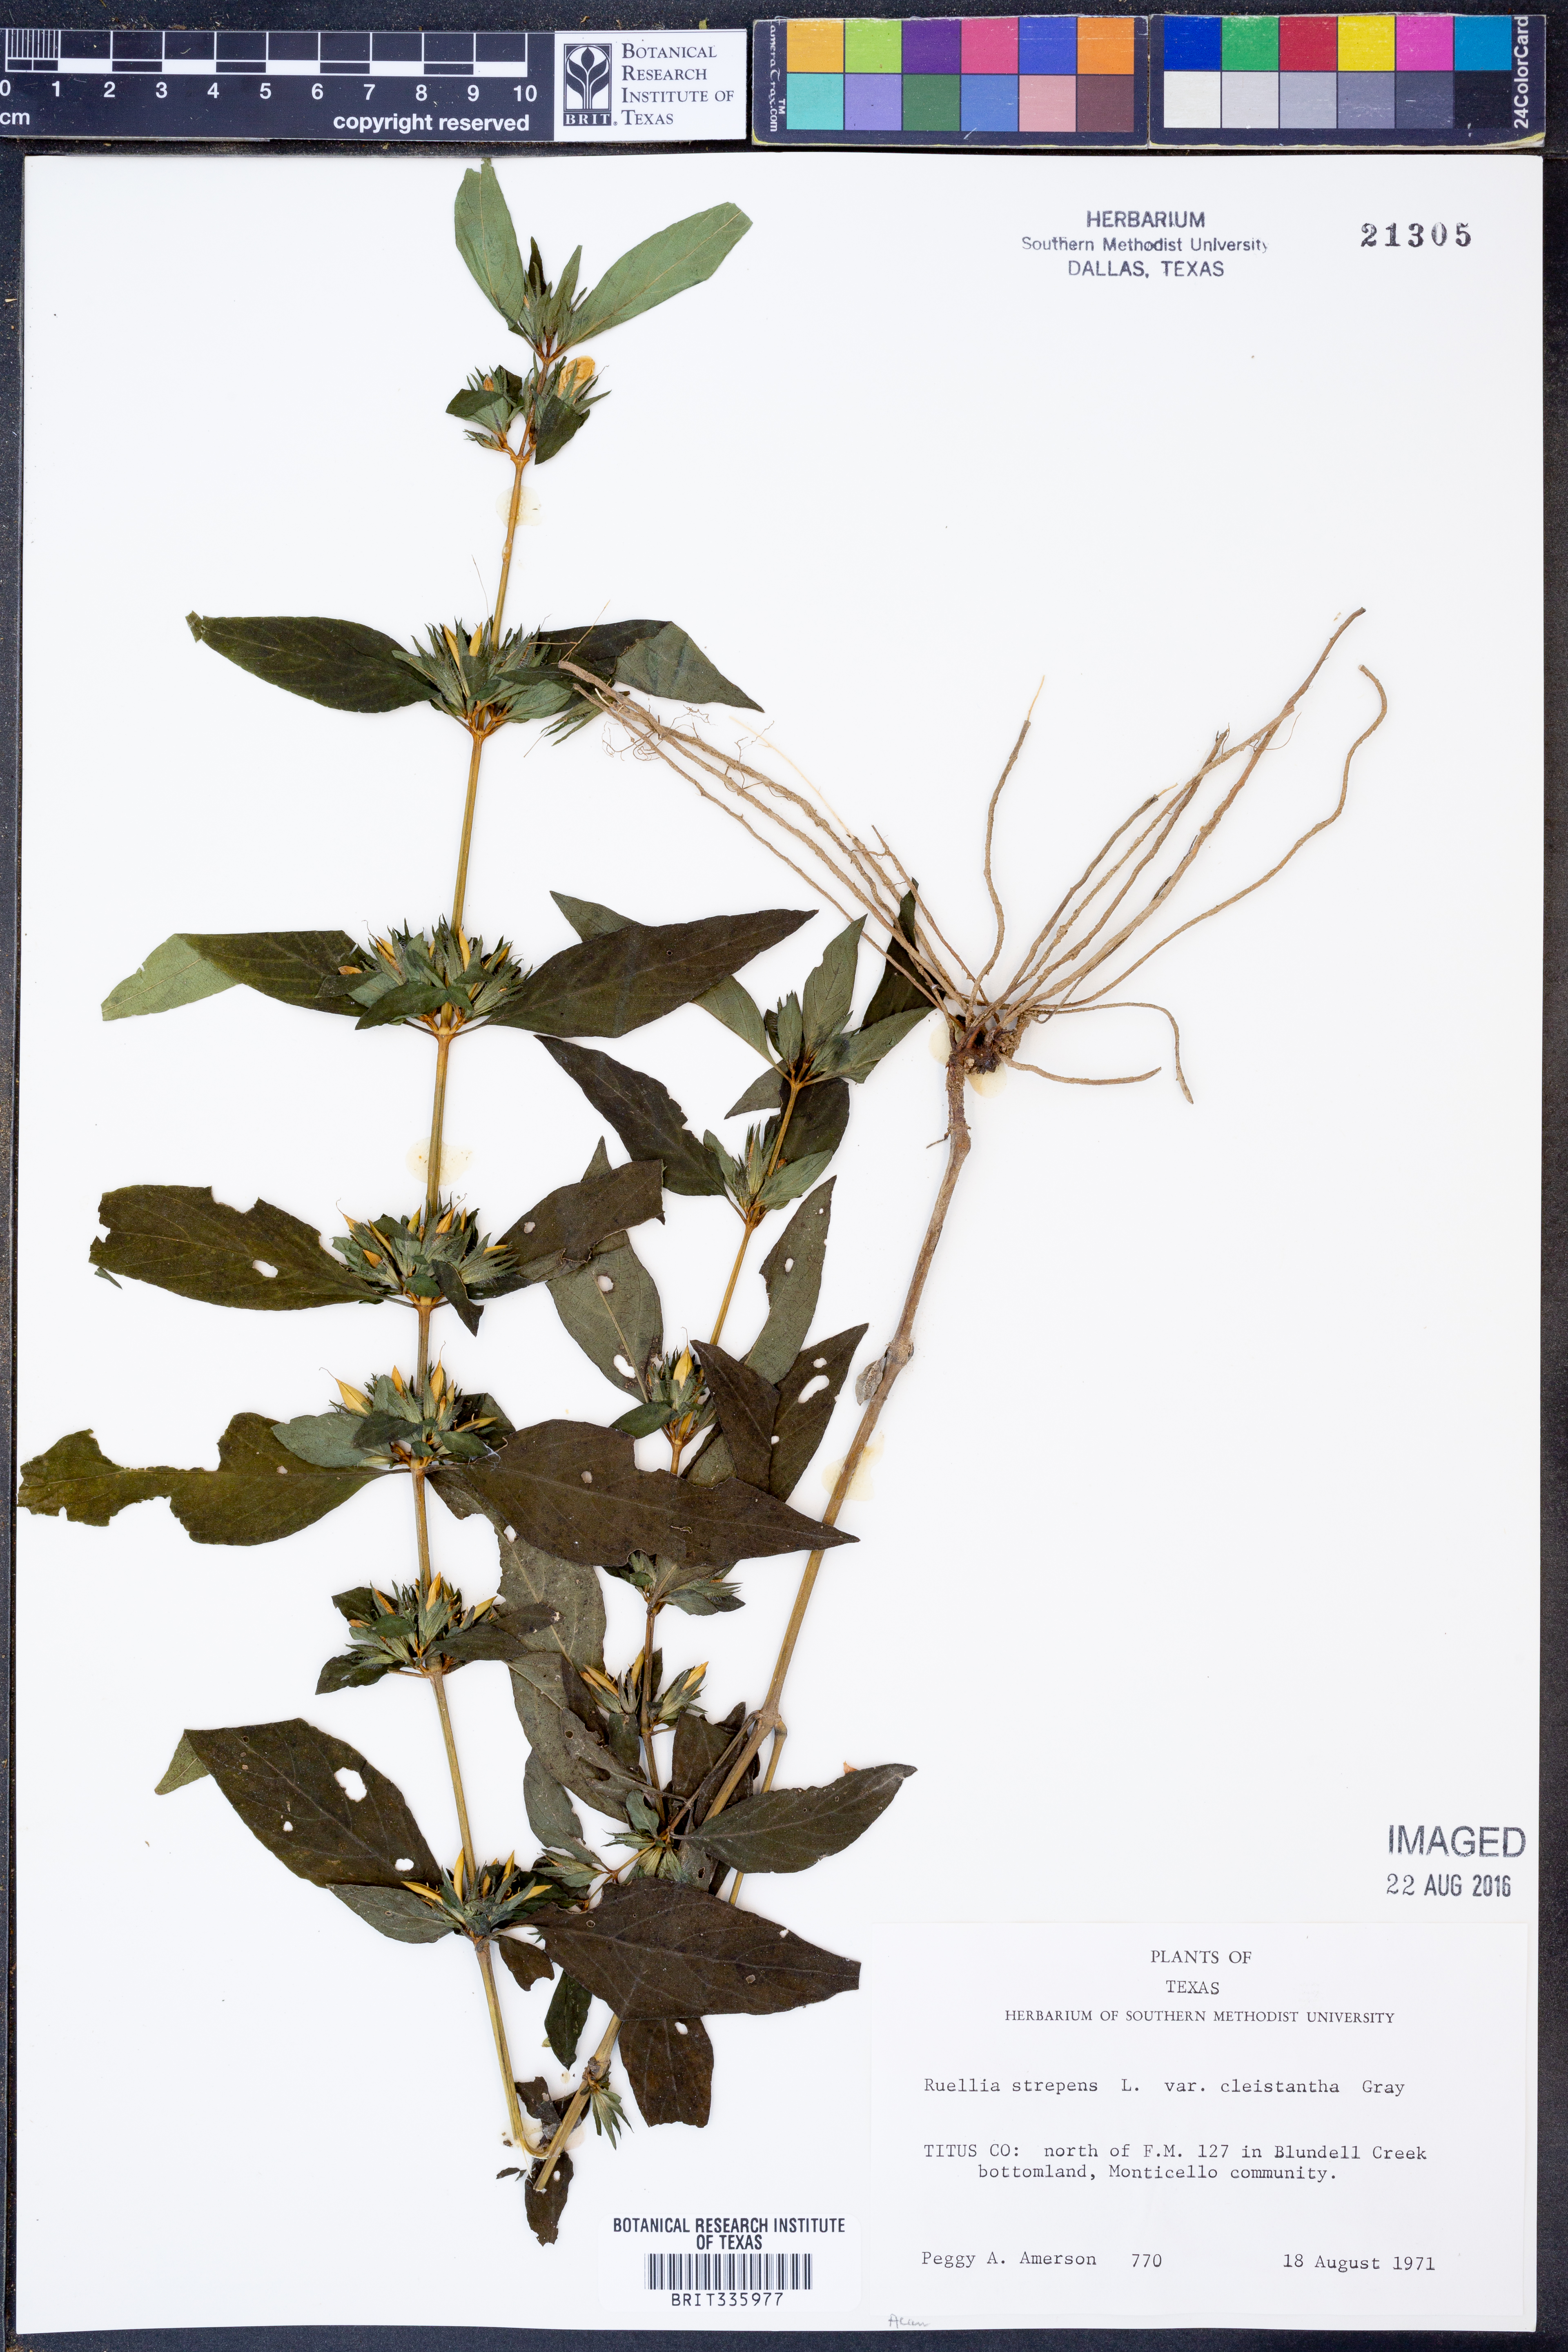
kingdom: Plantae
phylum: Tracheophyta
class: Magnoliopsida
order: Lamiales
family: Acanthaceae
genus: Ruellia
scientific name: Ruellia strepens
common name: Limestone wild petunia
